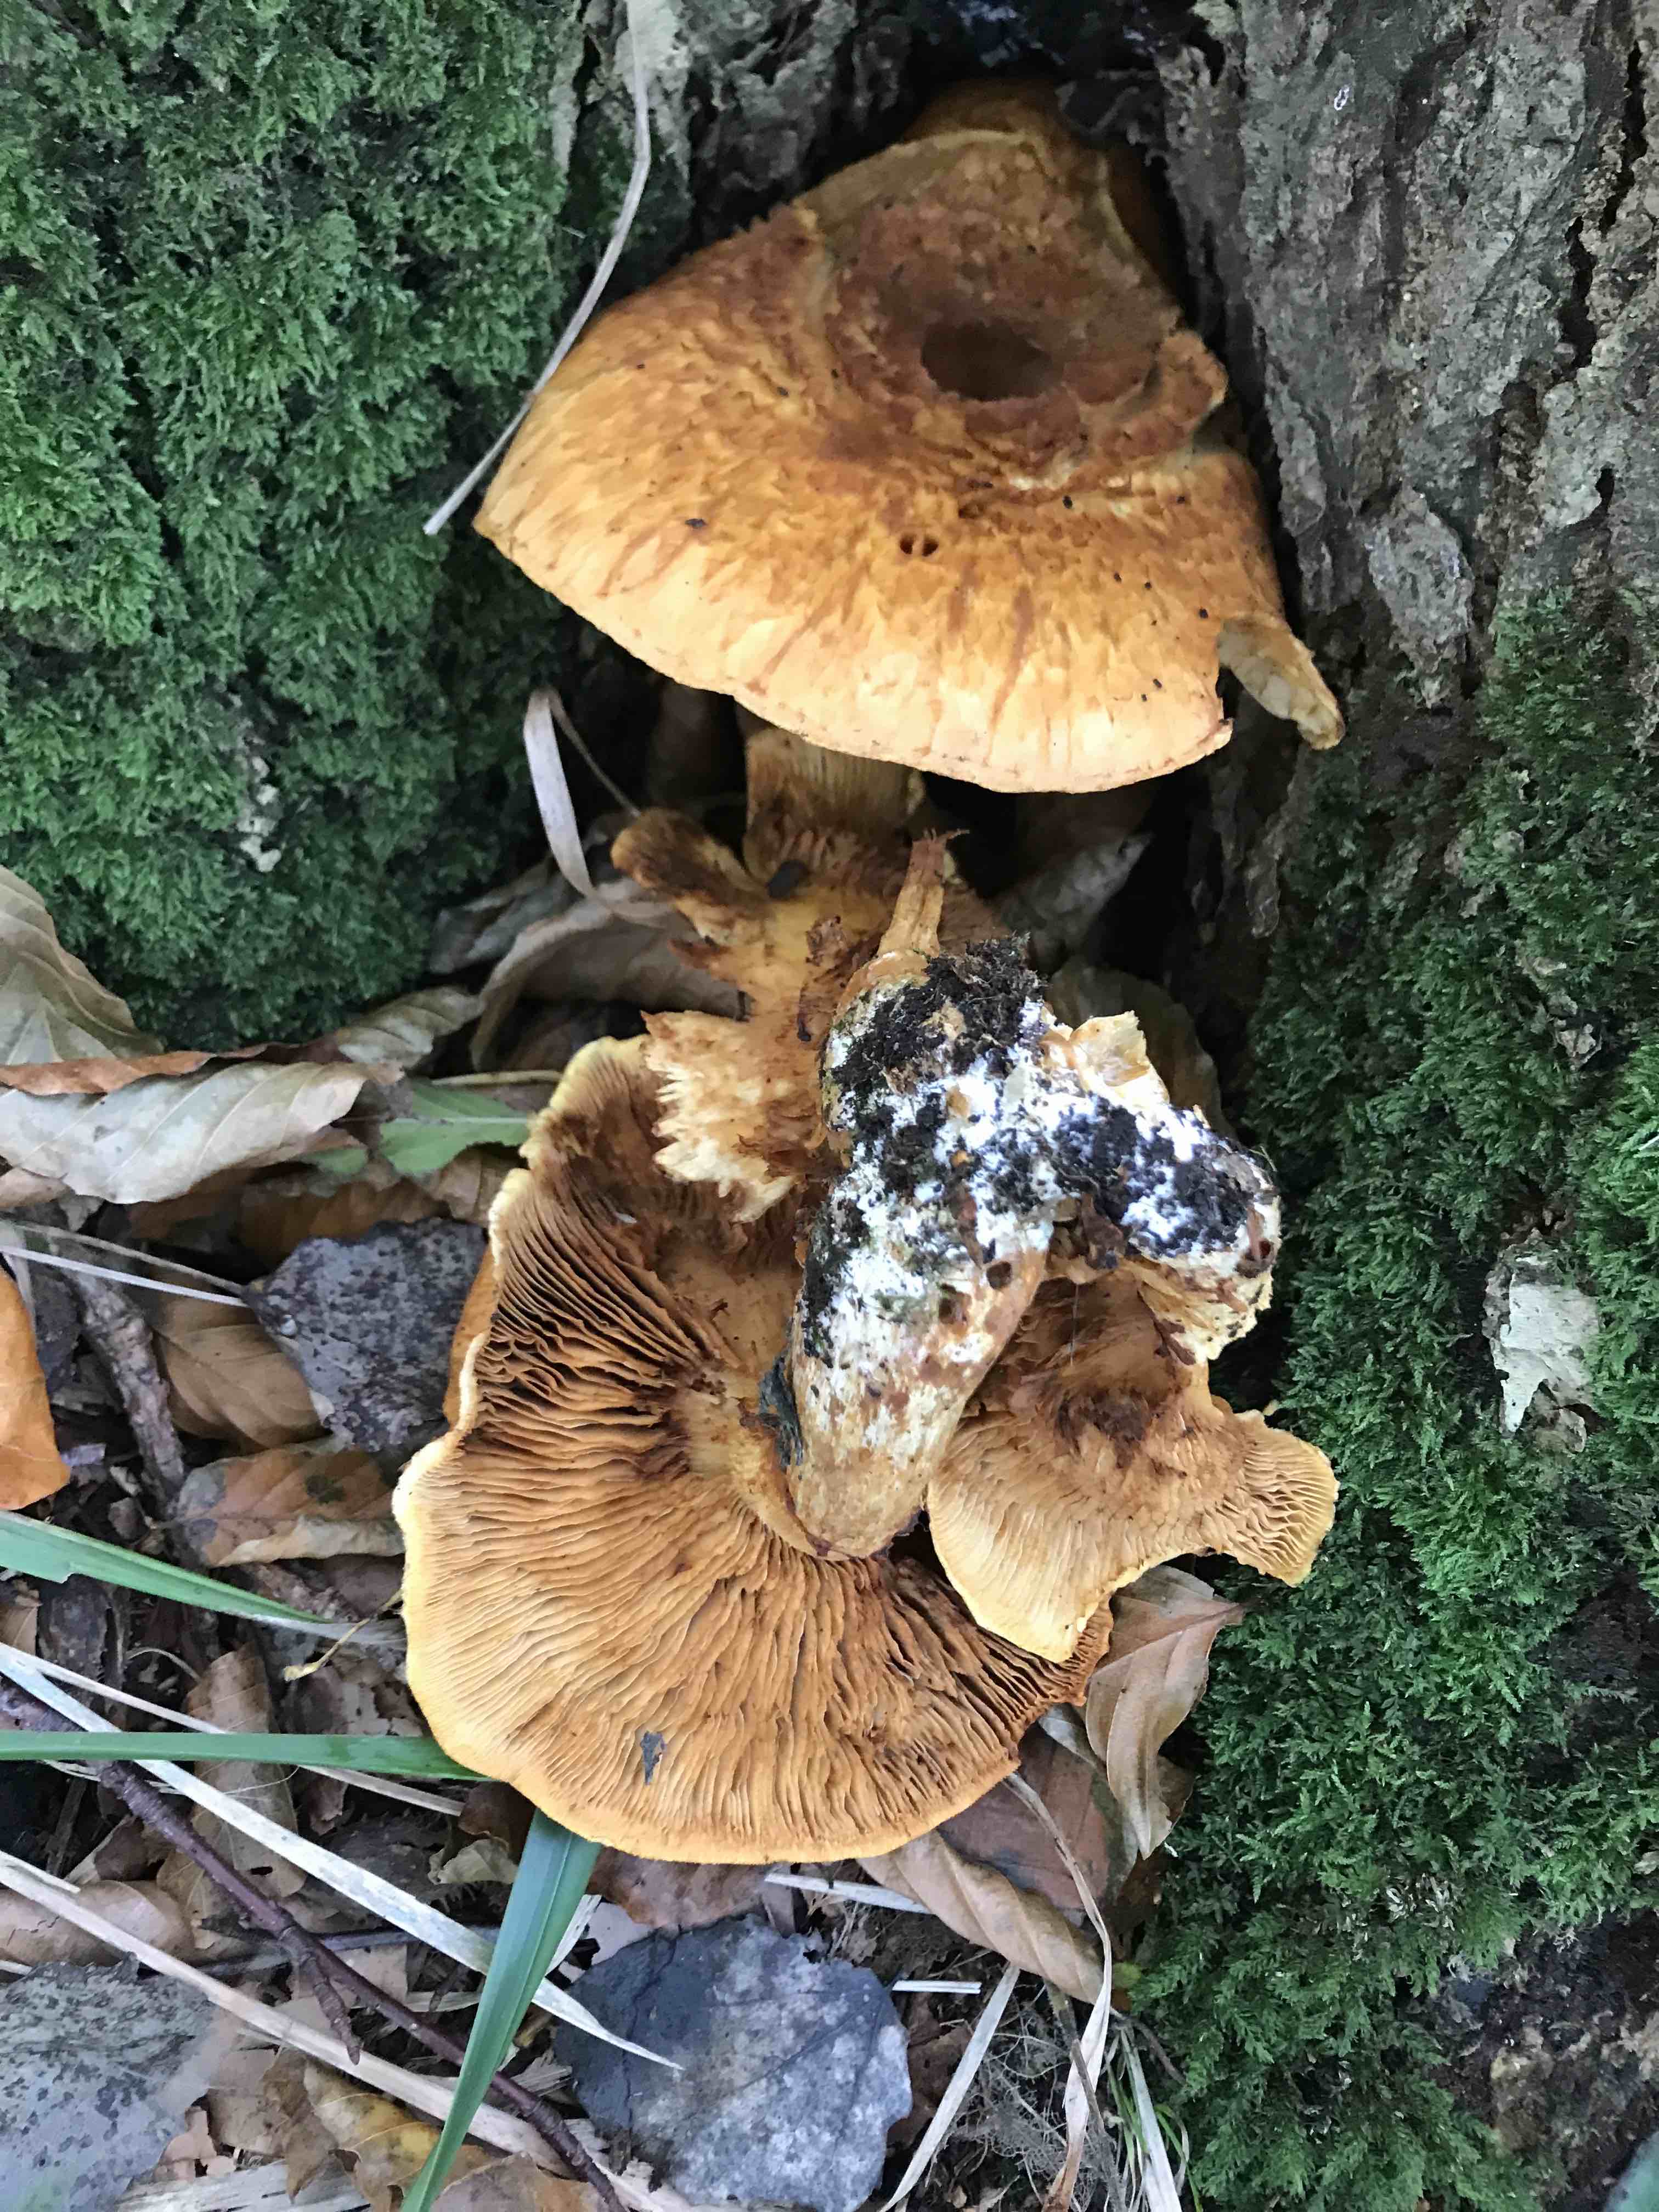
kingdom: Fungi
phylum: Basidiomycota
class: Agaricomycetes
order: Agaricales
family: Hymenogastraceae
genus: Gymnopilus
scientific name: Gymnopilus spectabilis
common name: fibret flammehat
